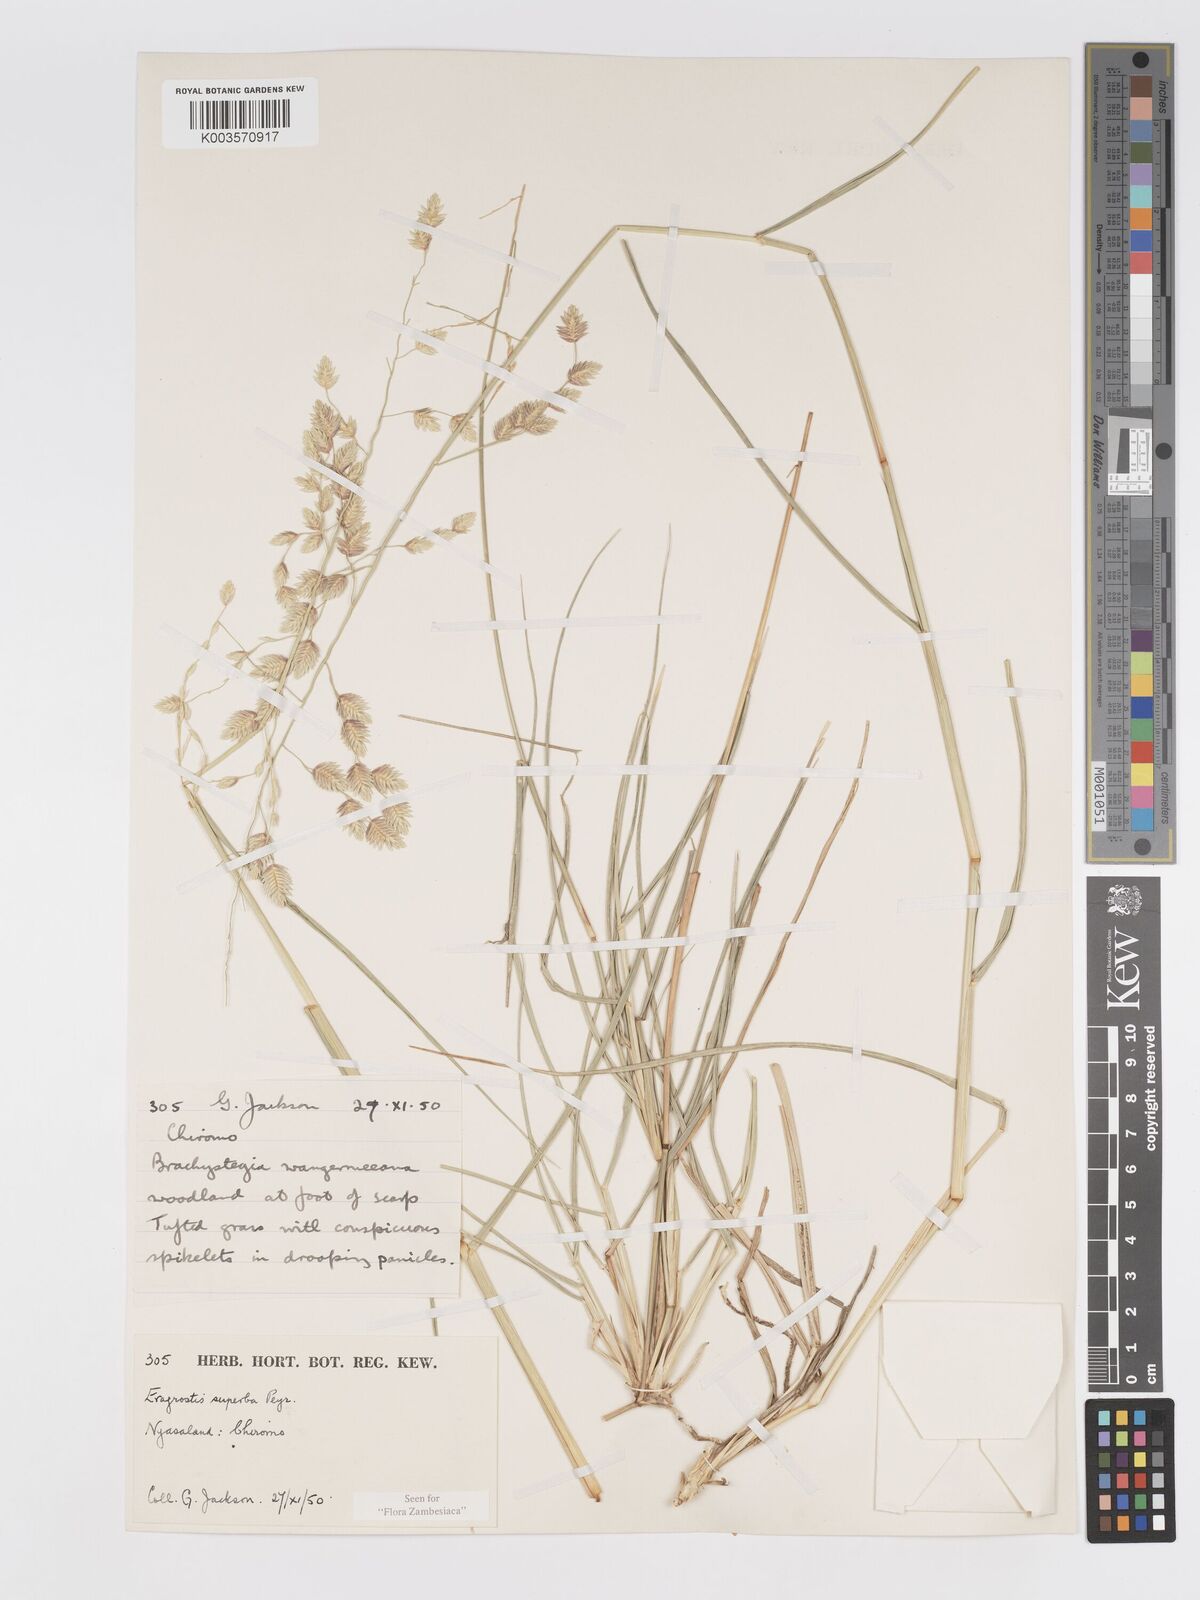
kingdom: Plantae
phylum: Tracheophyta
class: Liliopsida
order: Poales
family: Poaceae
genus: Eragrostis
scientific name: Eragrostis superba
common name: Wilman lovegrass
